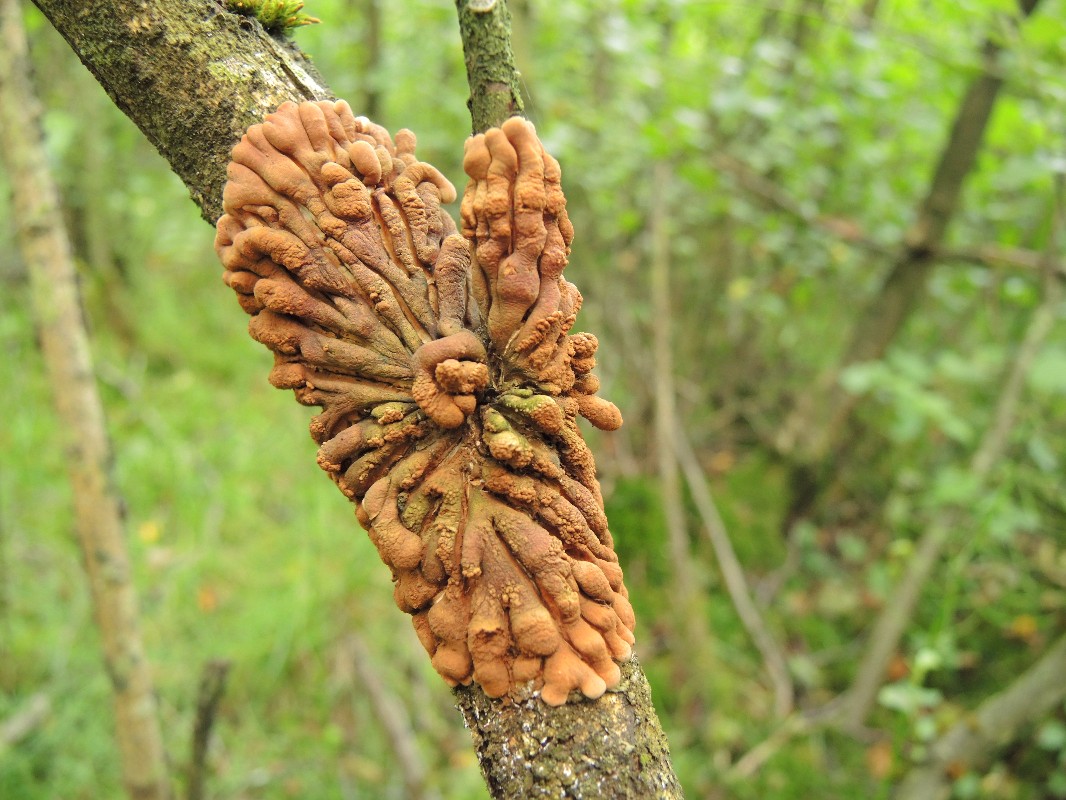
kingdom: Fungi
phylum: Ascomycota
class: Sordariomycetes
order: Hypocreales
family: Hypocreaceae
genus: Hypocreopsis
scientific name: Hypocreopsis lichenoides
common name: pilfinger
